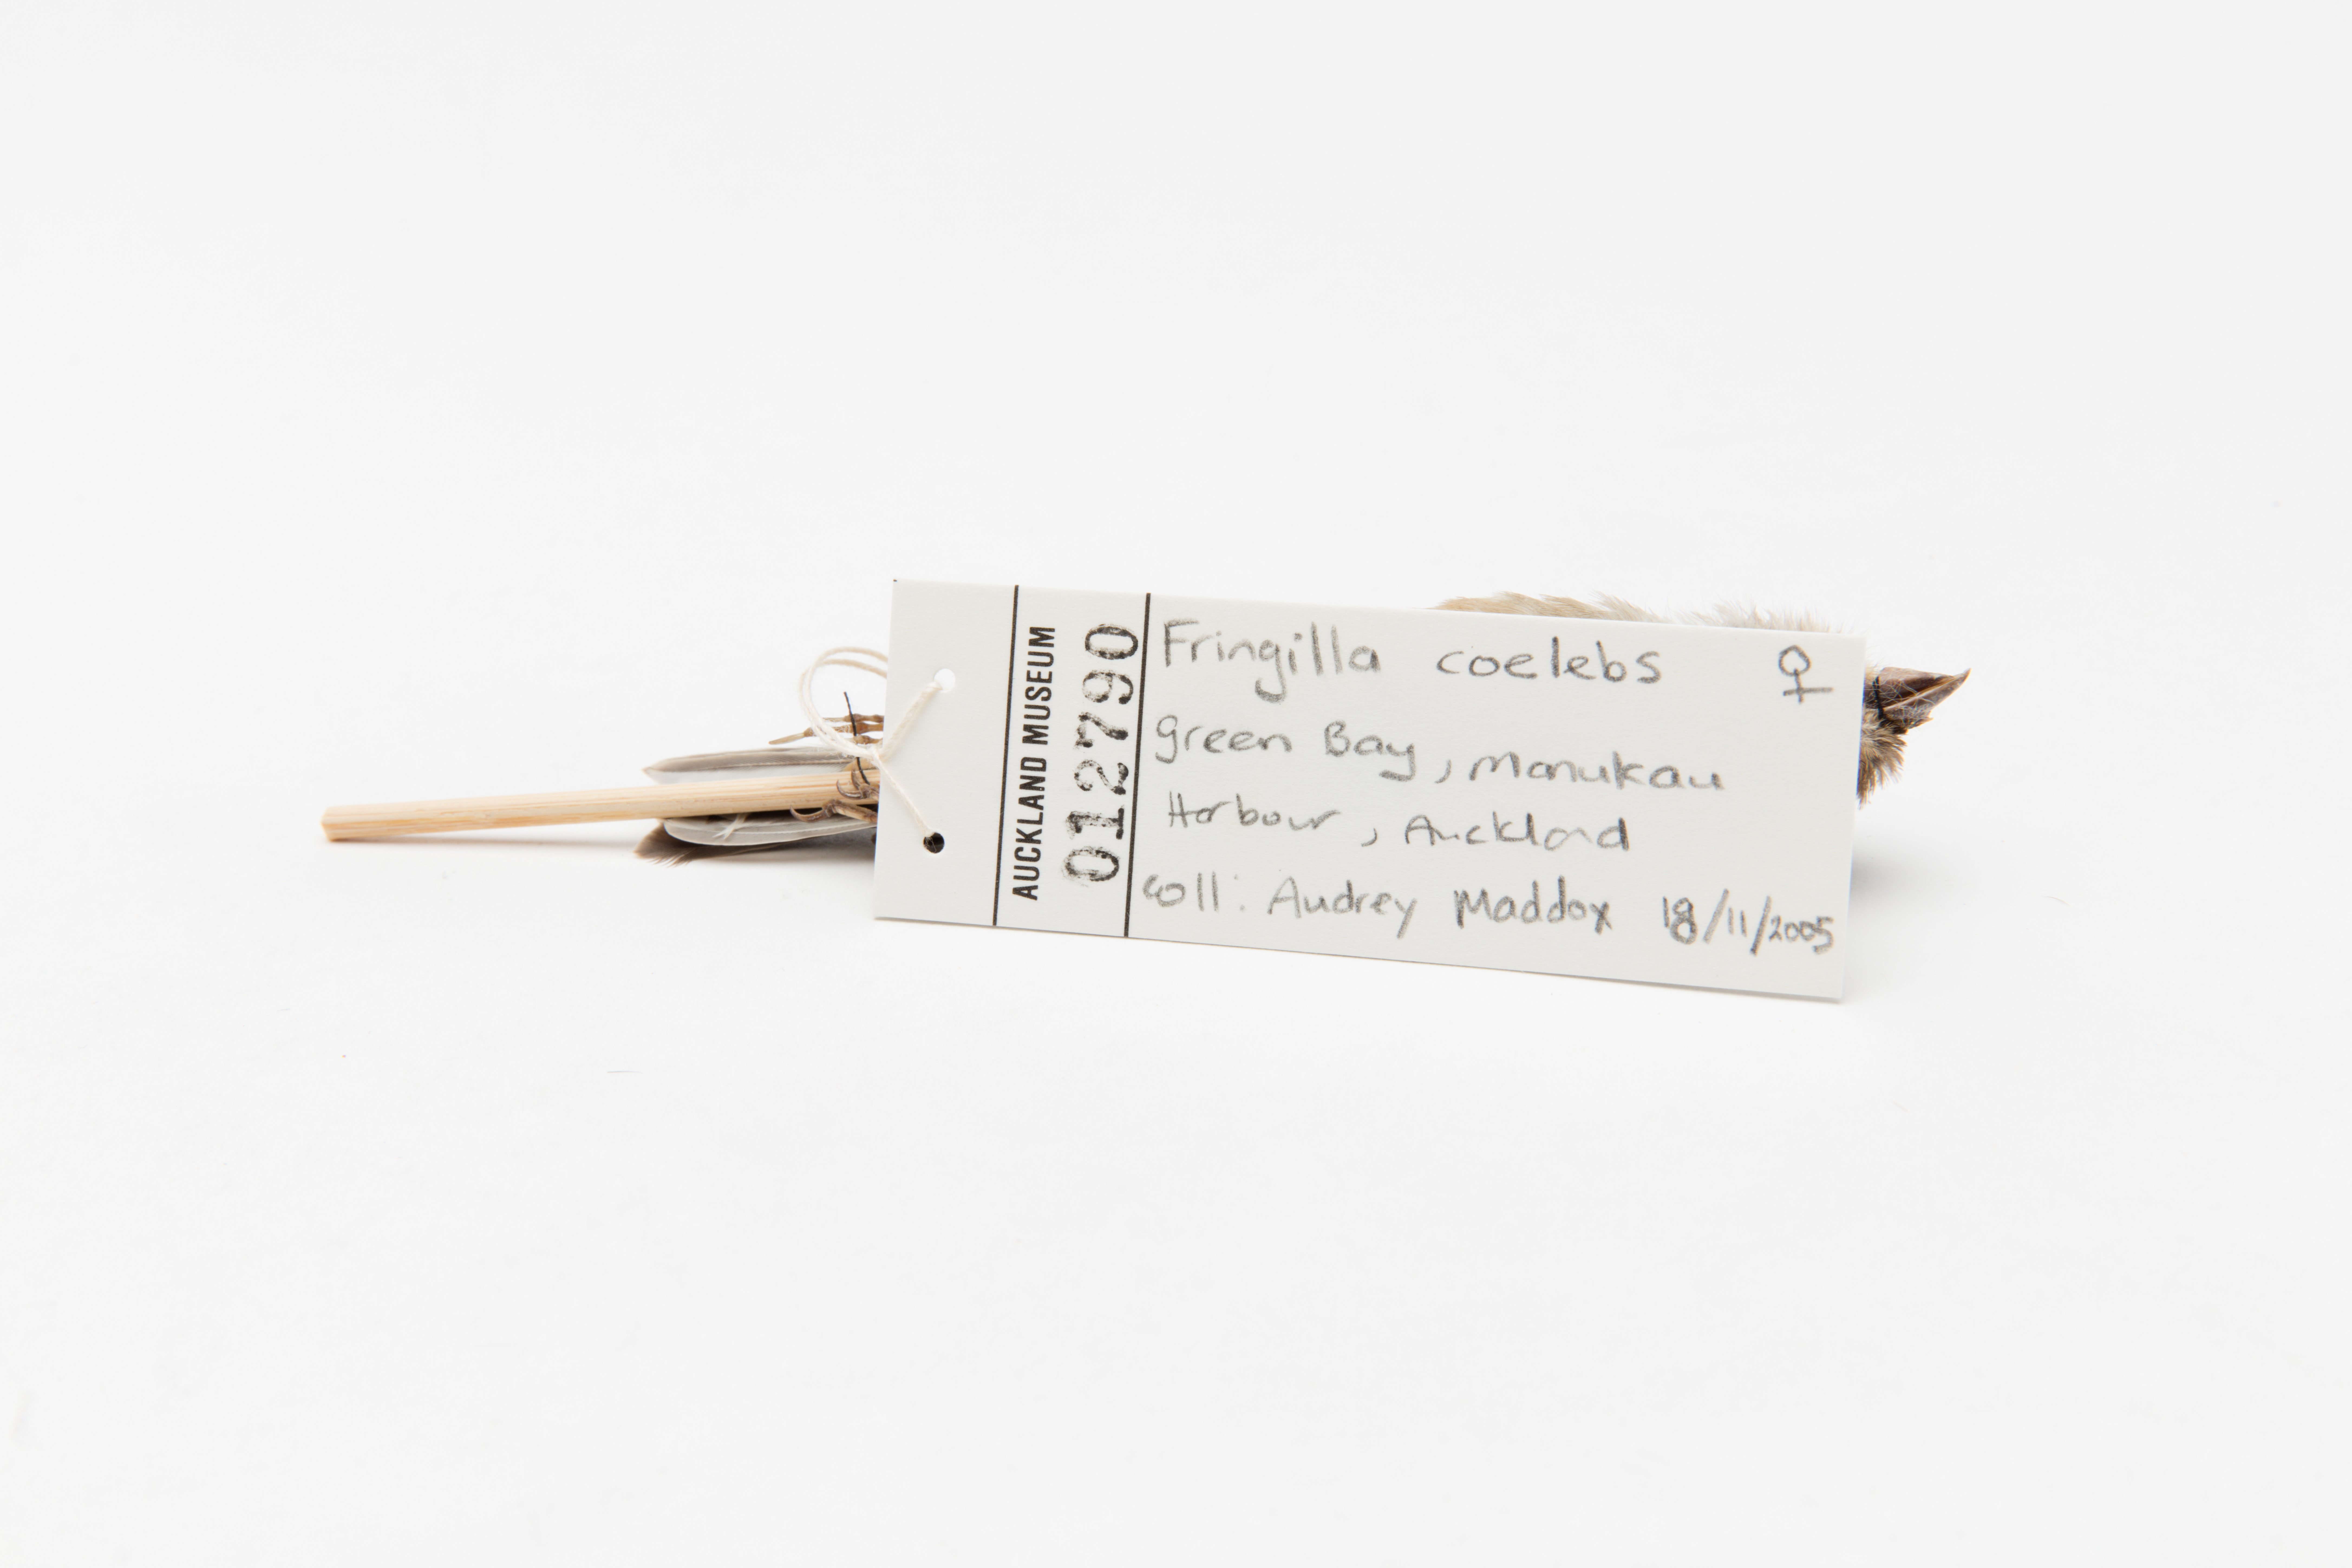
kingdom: Animalia
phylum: Chordata
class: Aves
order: Passeriformes
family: Fringillidae
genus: Fringilla
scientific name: Fringilla coelebs
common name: Common chaffinch
